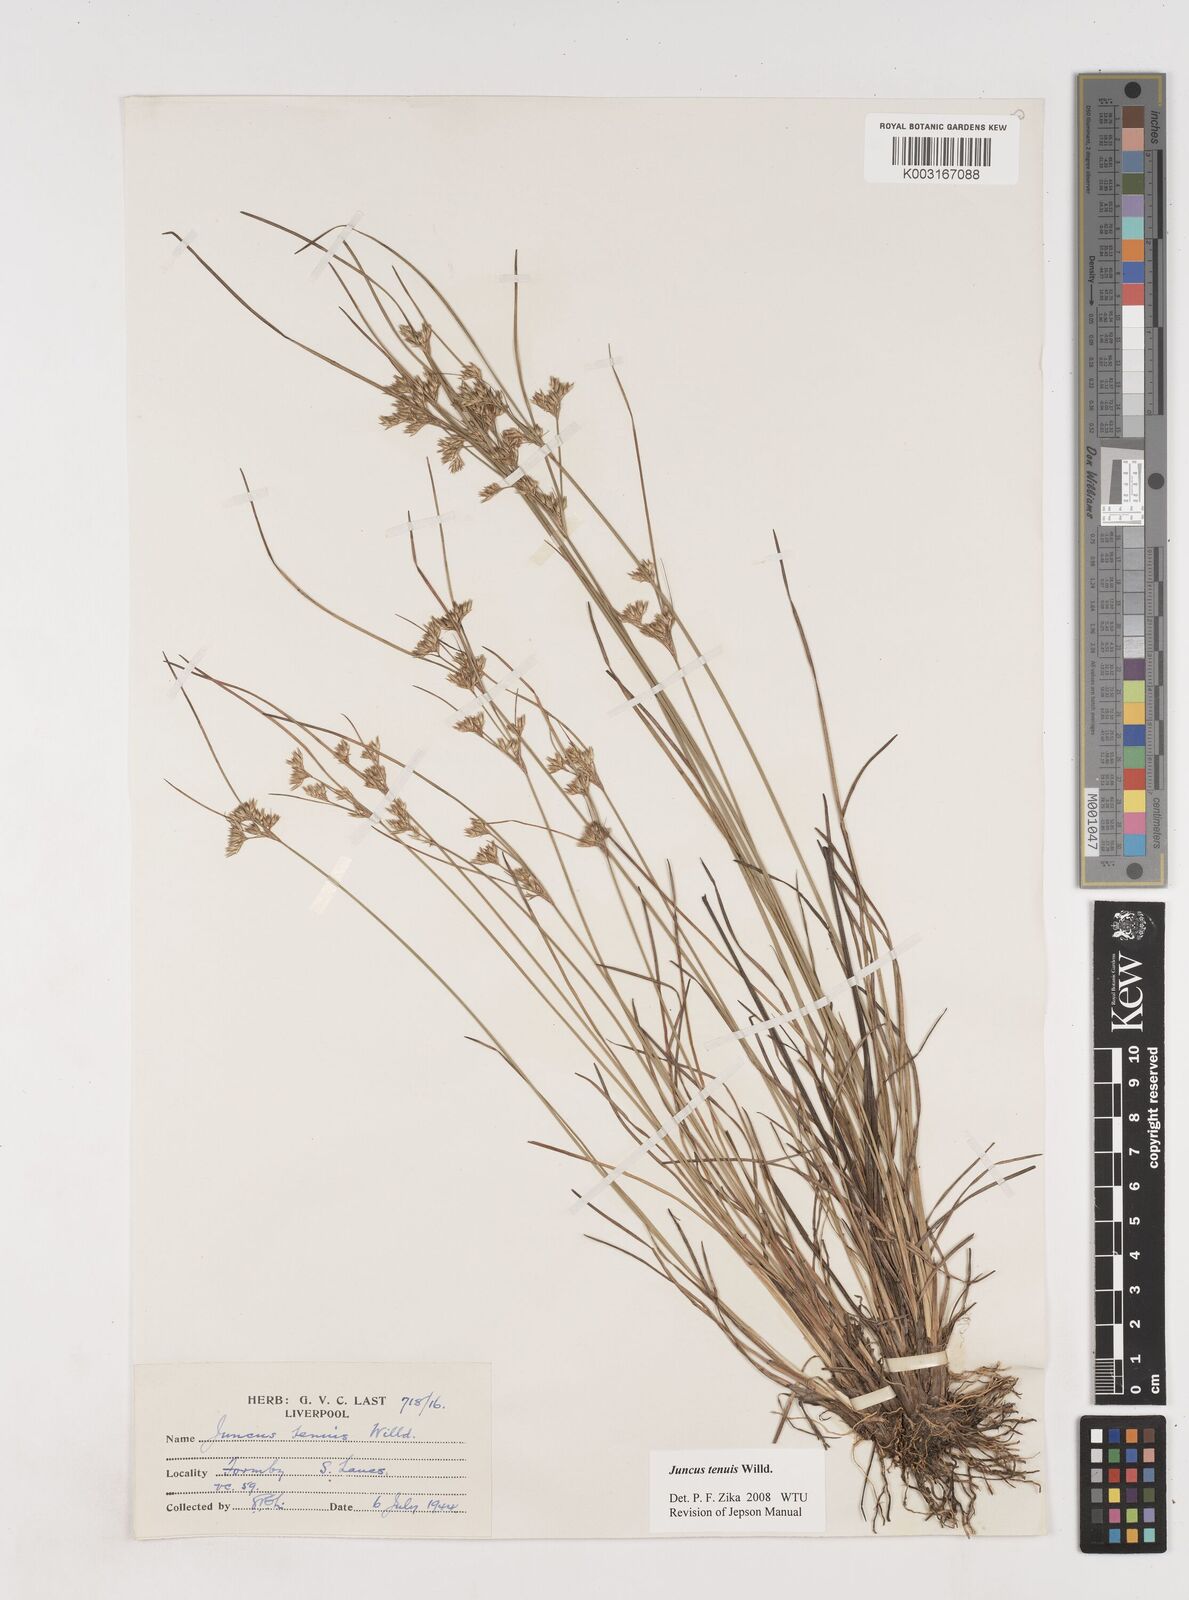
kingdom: Plantae
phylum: Tracheophyta
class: Liliopsida
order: Poales
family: Juncaceae
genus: Juncus
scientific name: Juncus tenuis
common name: Slender rush
